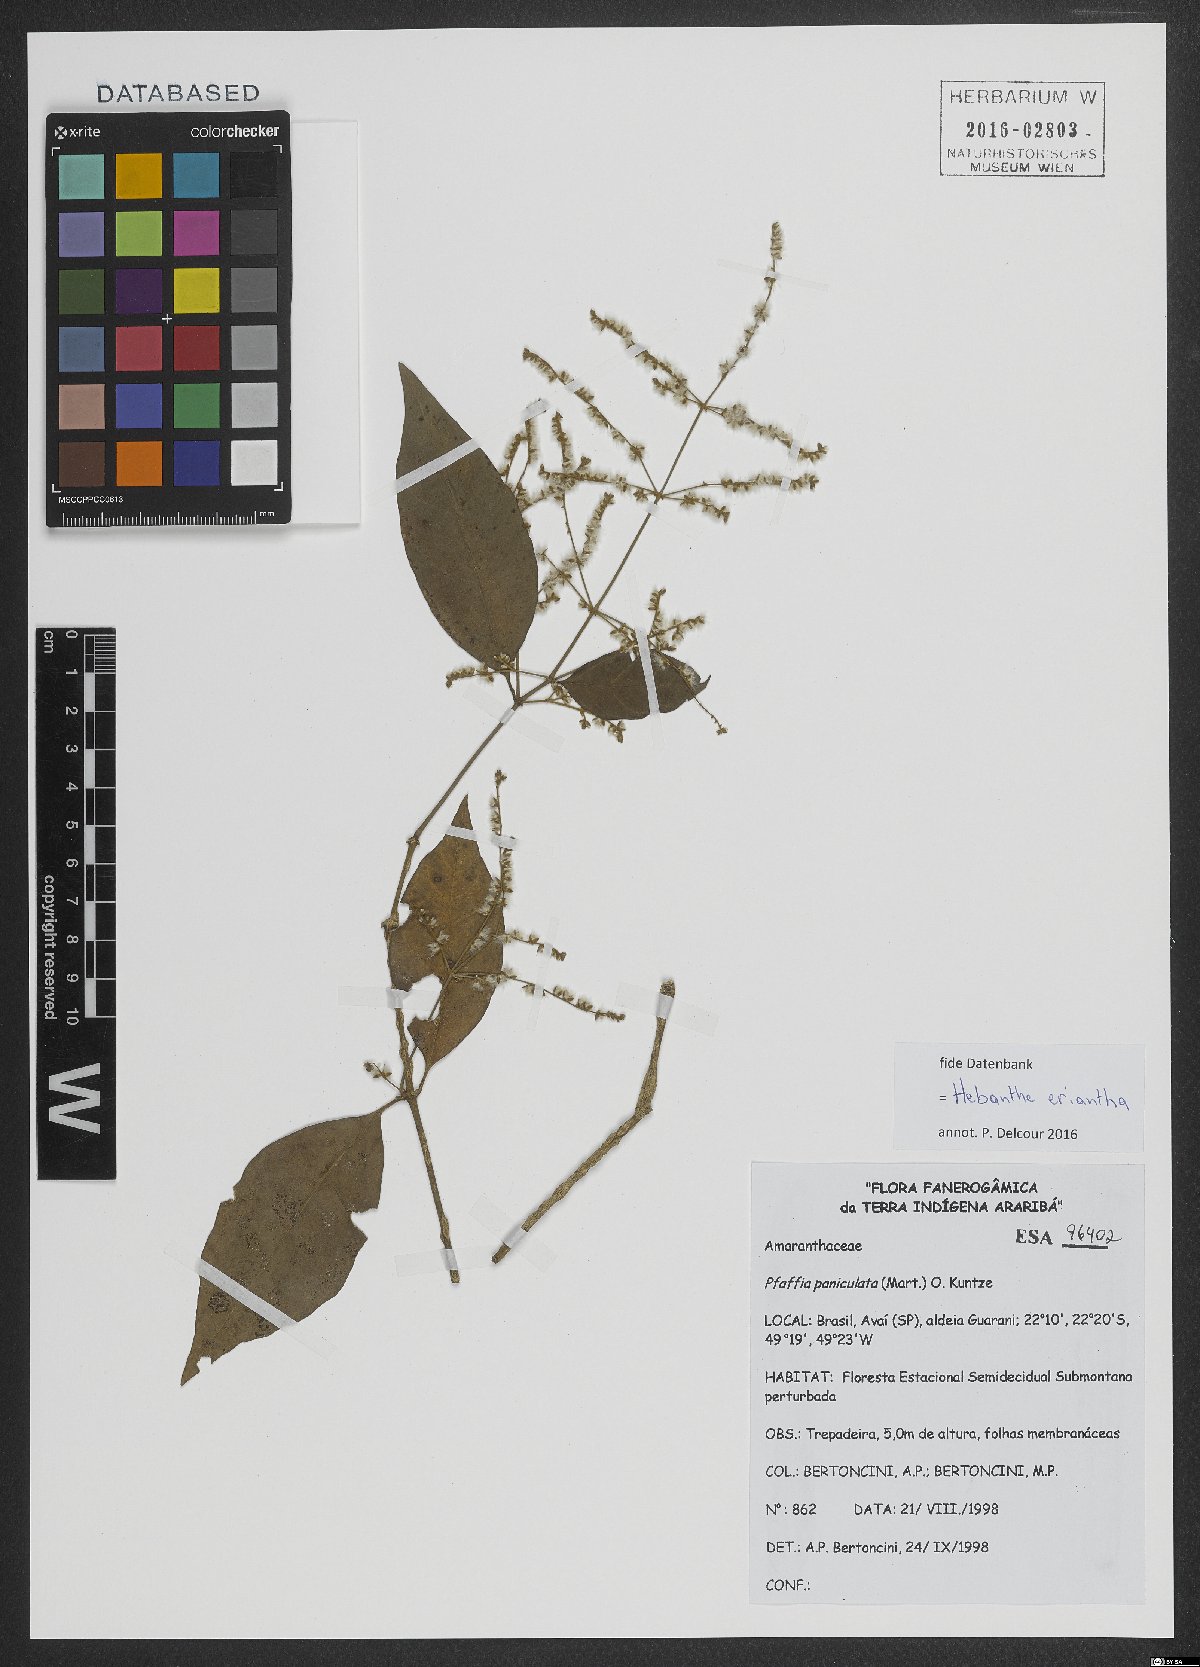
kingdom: Plantae
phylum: Tracheophyta
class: Magnoliopsida
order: Caryophyllales
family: Amaranthaceae
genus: Hebanthe
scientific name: Hebanthe erianthos
